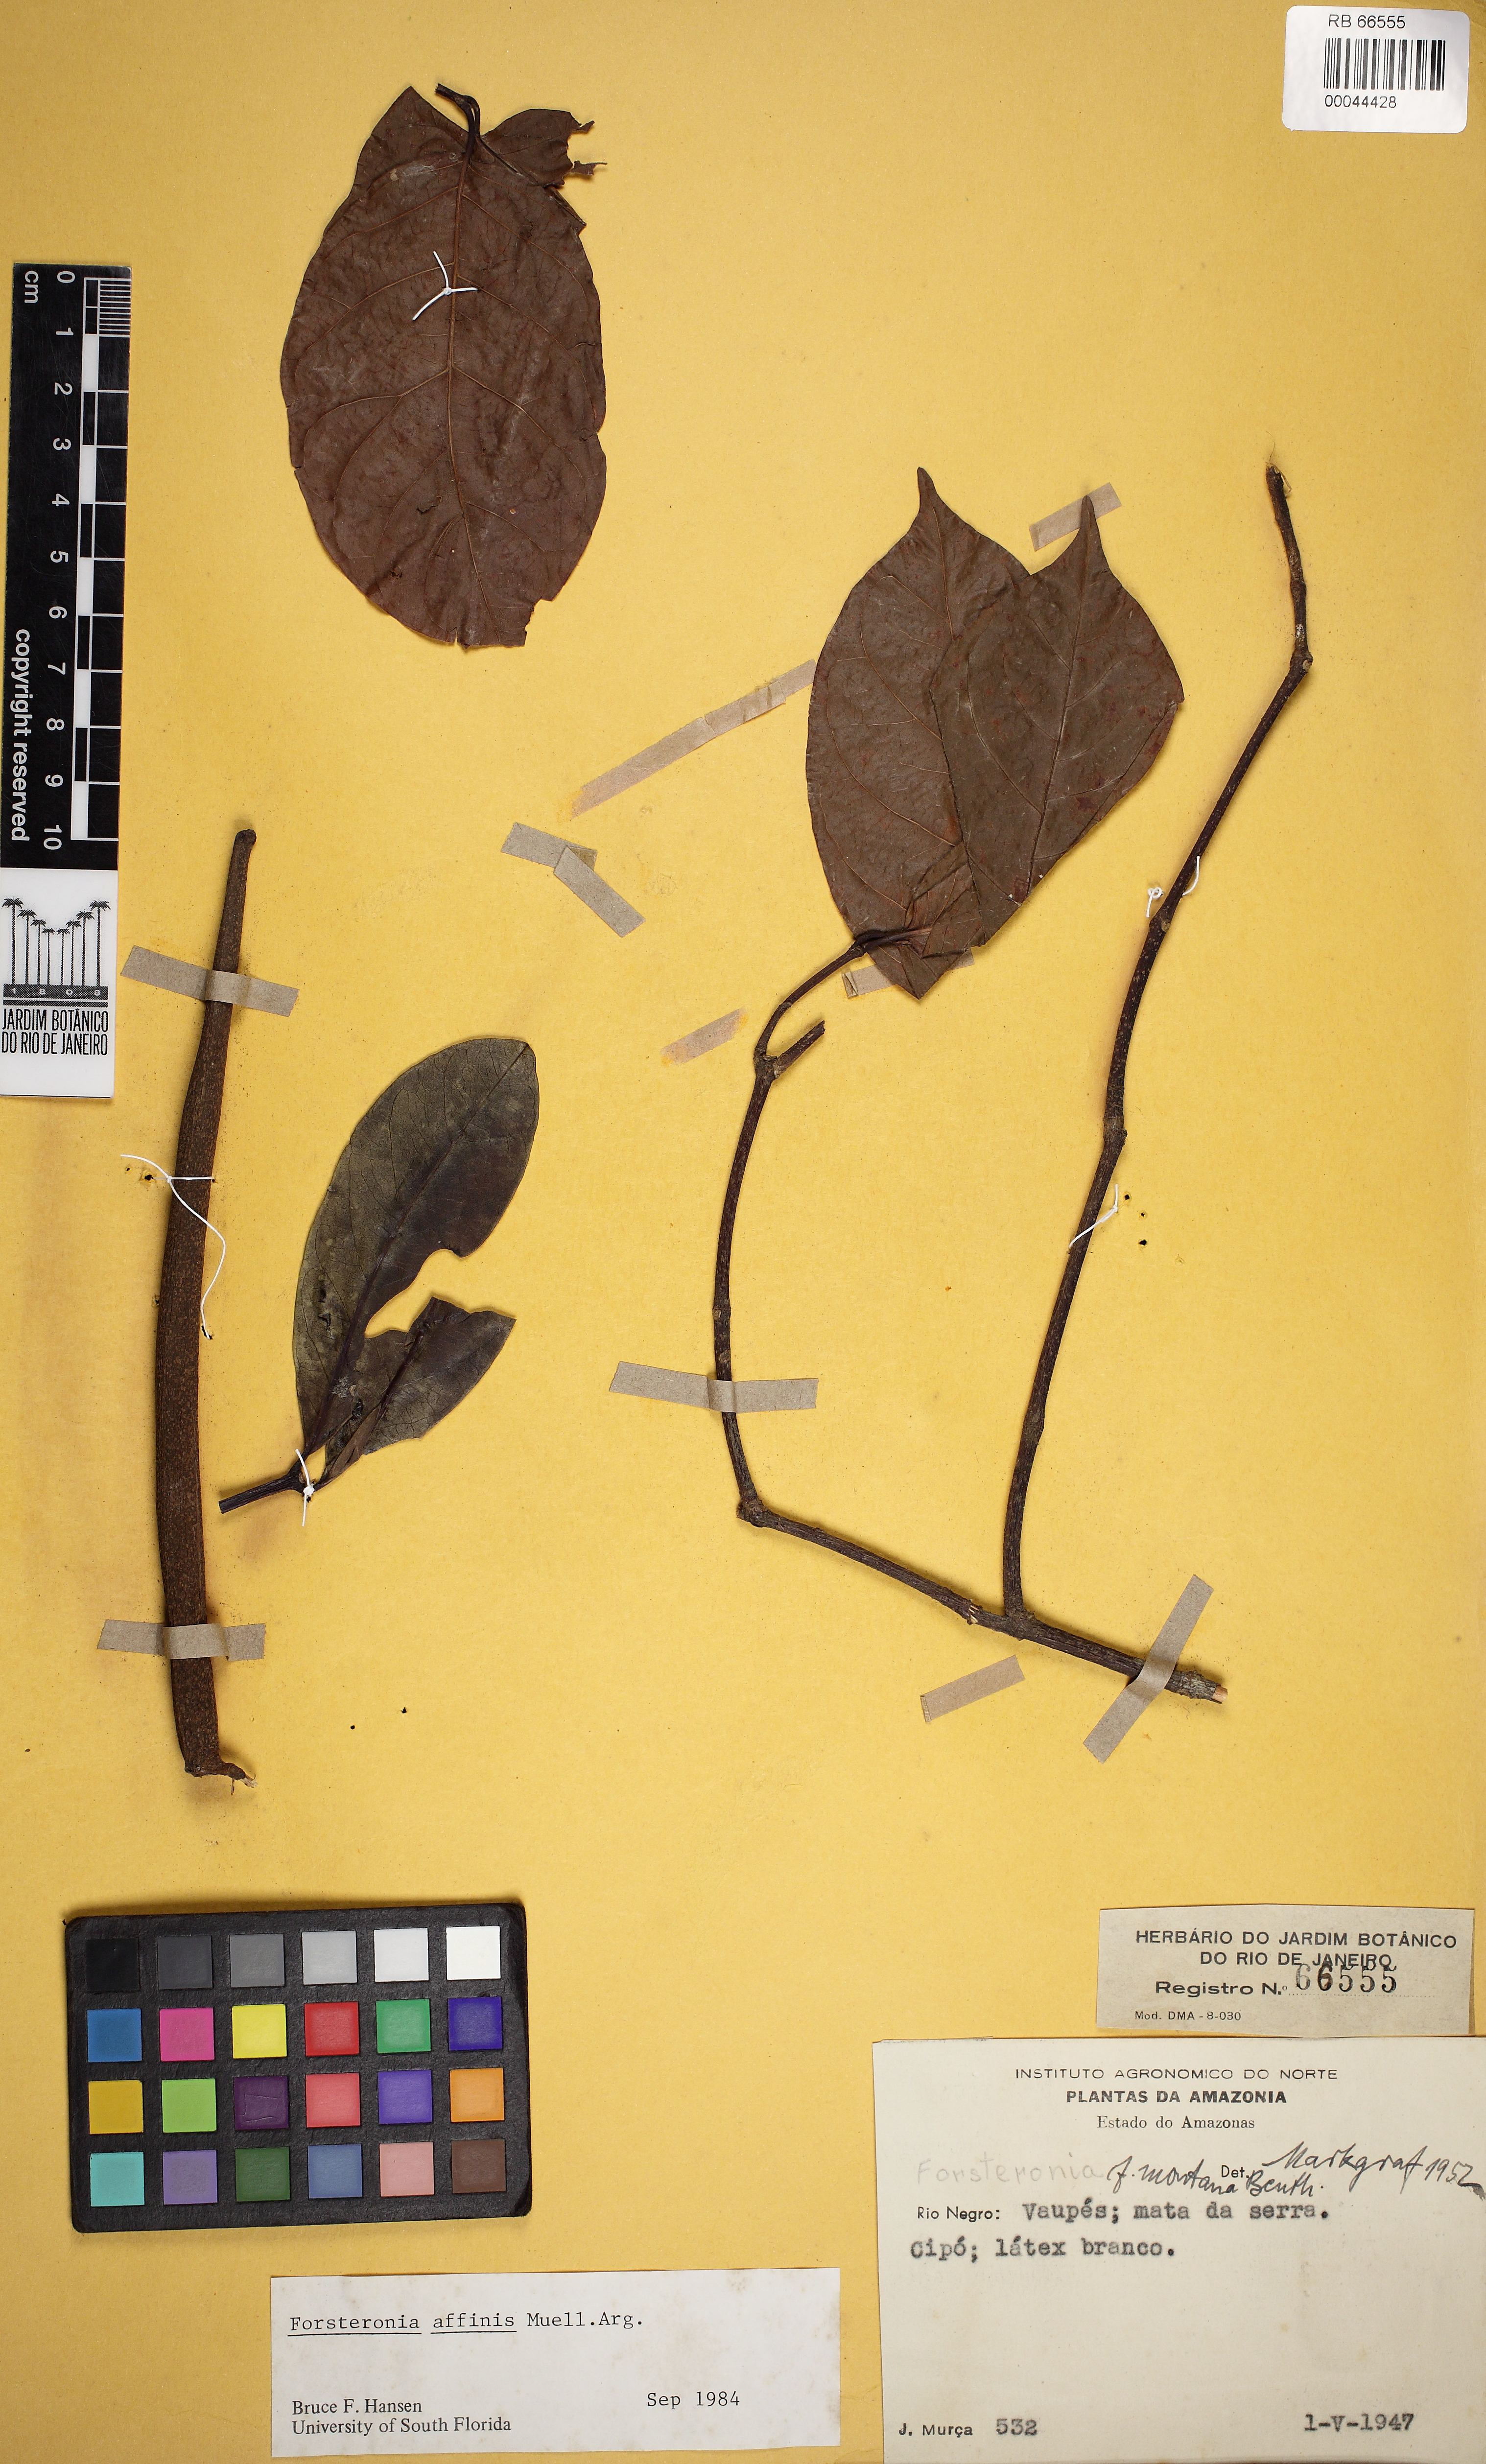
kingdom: Plantae
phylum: Tracheophyta
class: Magnoliopsida
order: Gentianales
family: Apocynaceae
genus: Forsteronia
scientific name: Forsteronia affinis
